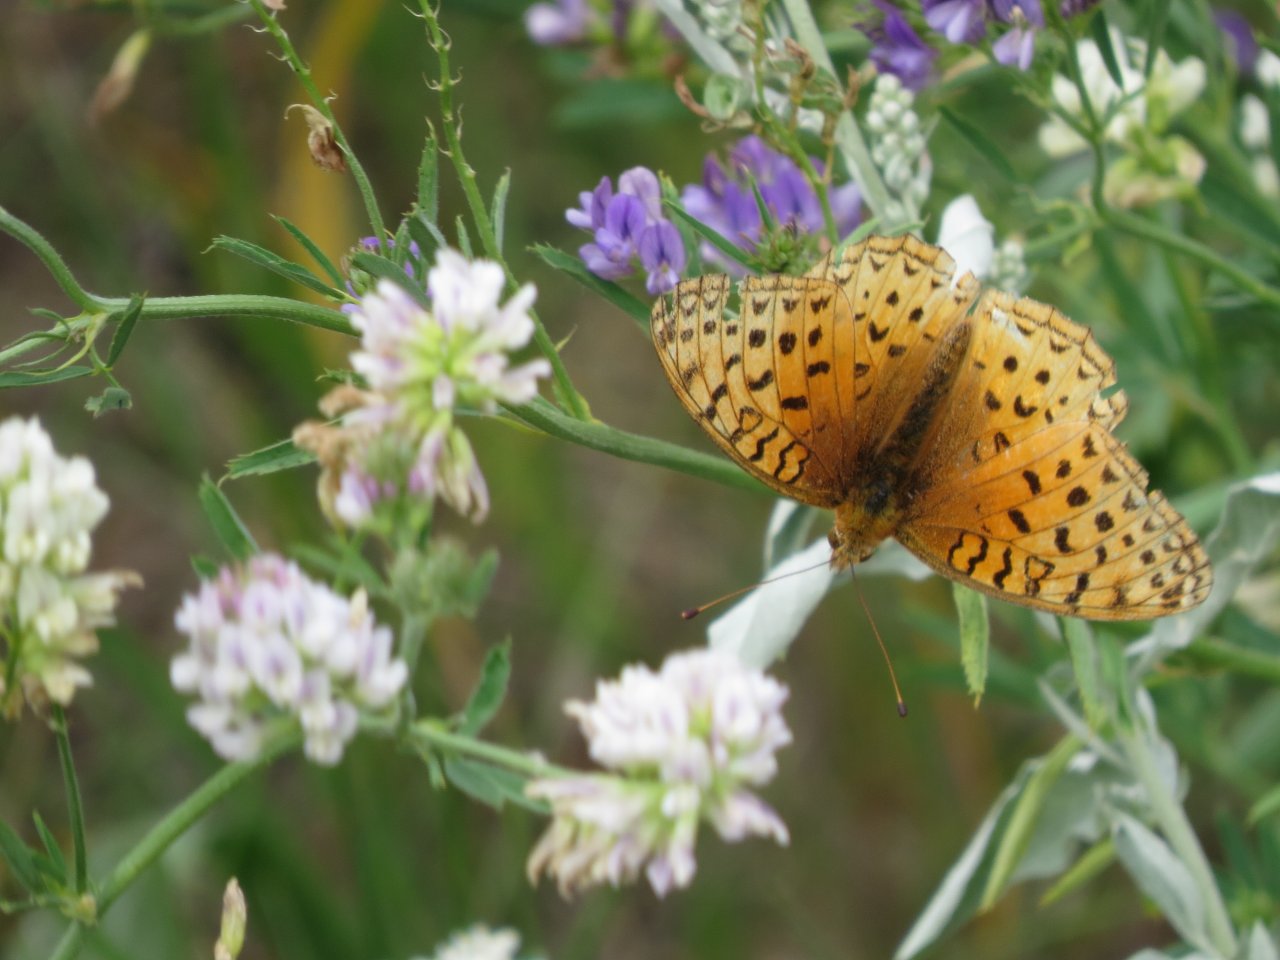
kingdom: Animalia
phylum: Arthropoda
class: Insecta
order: Lepidoptera
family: Nymphalidae
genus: Speyeria
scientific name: Speyeria aphrodite
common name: Aphrodite Fritillary
